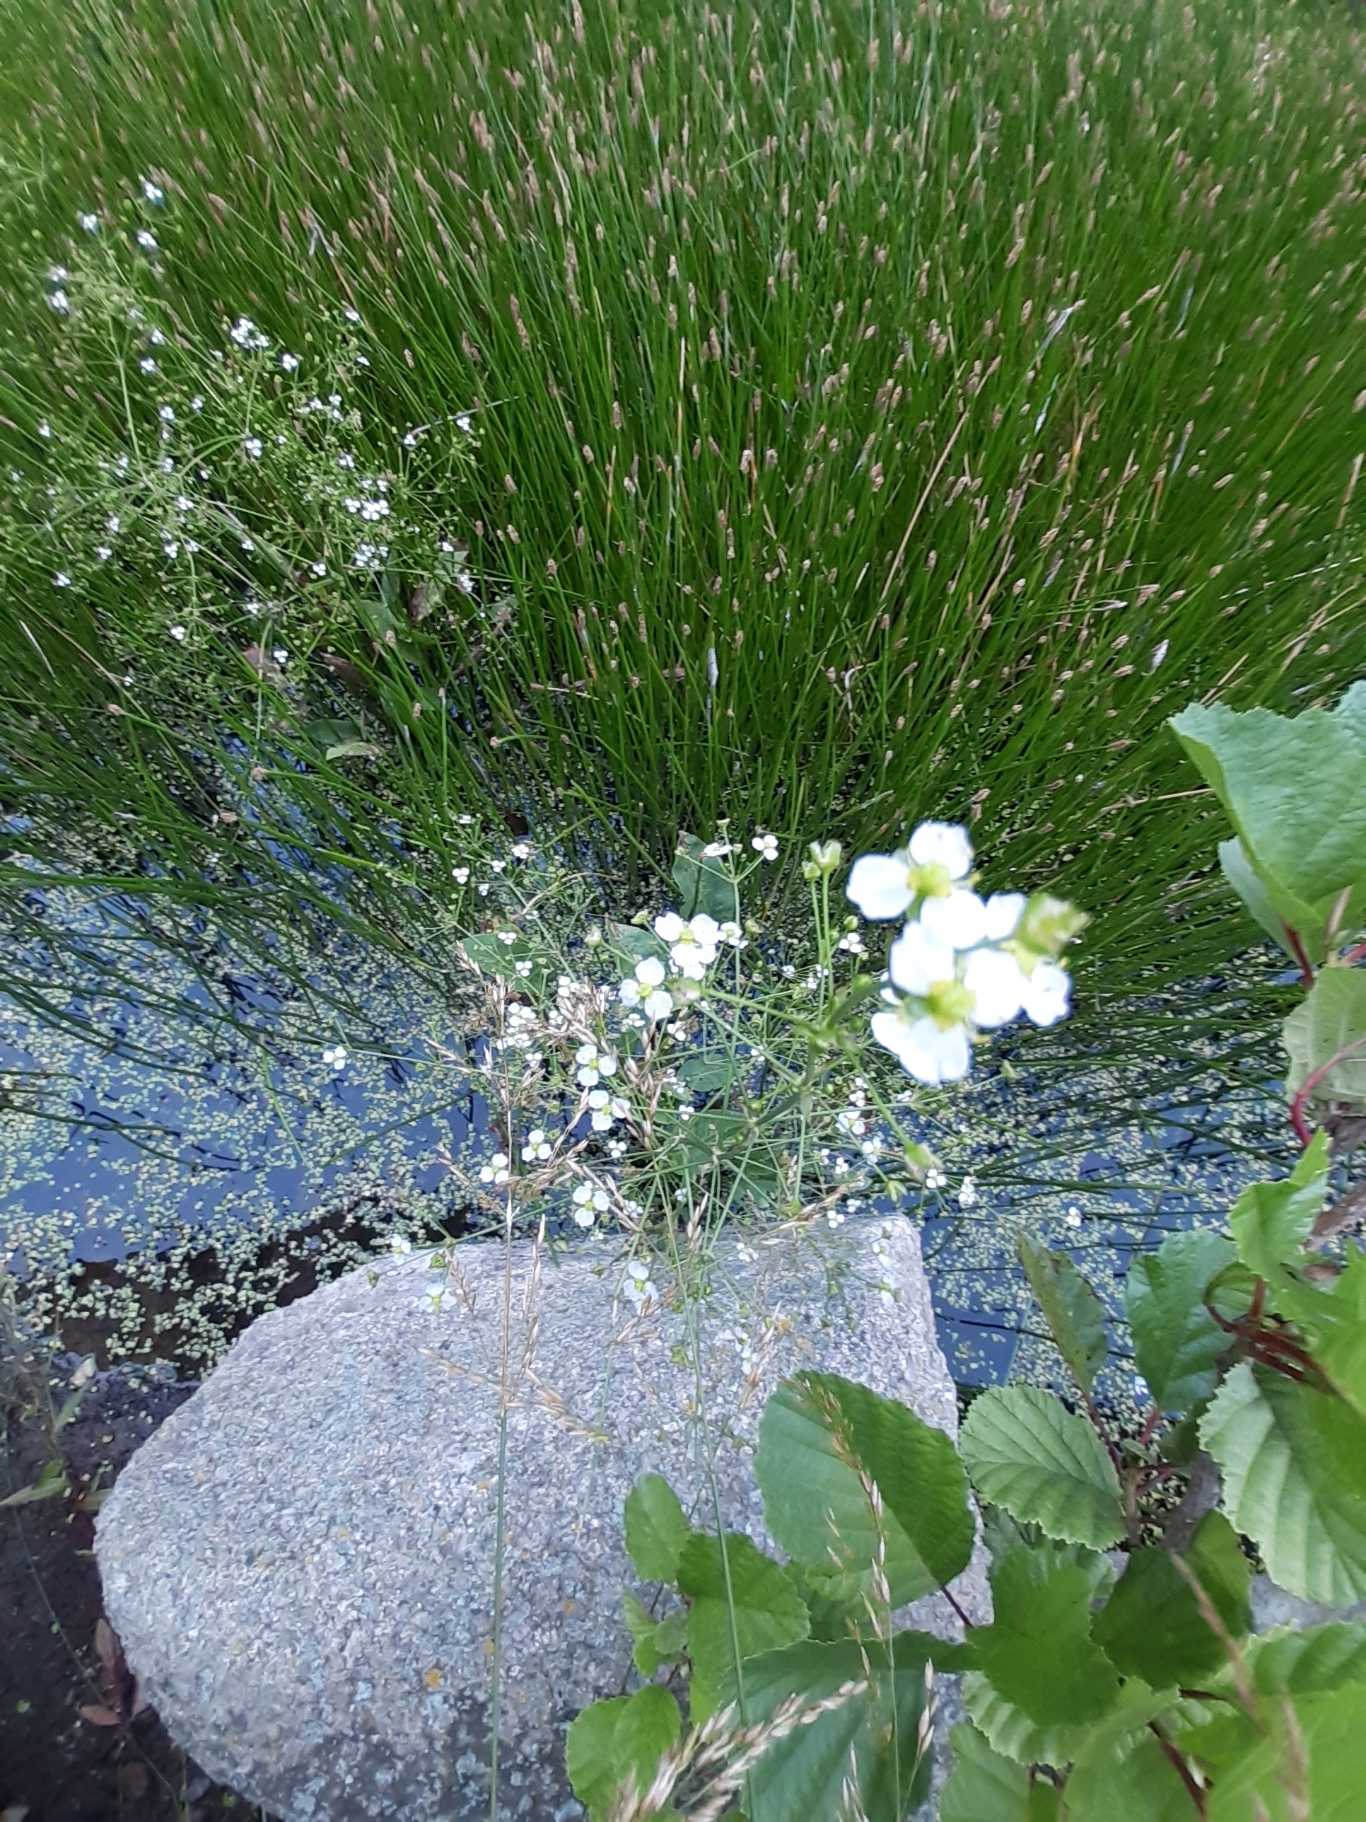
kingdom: Plantae
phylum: Tracheophyta
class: Liliopsida
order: Alismatales
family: Alismataceae
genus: Alisma
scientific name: Alisma plantago-aquatica
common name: Vejbred-skeblad
